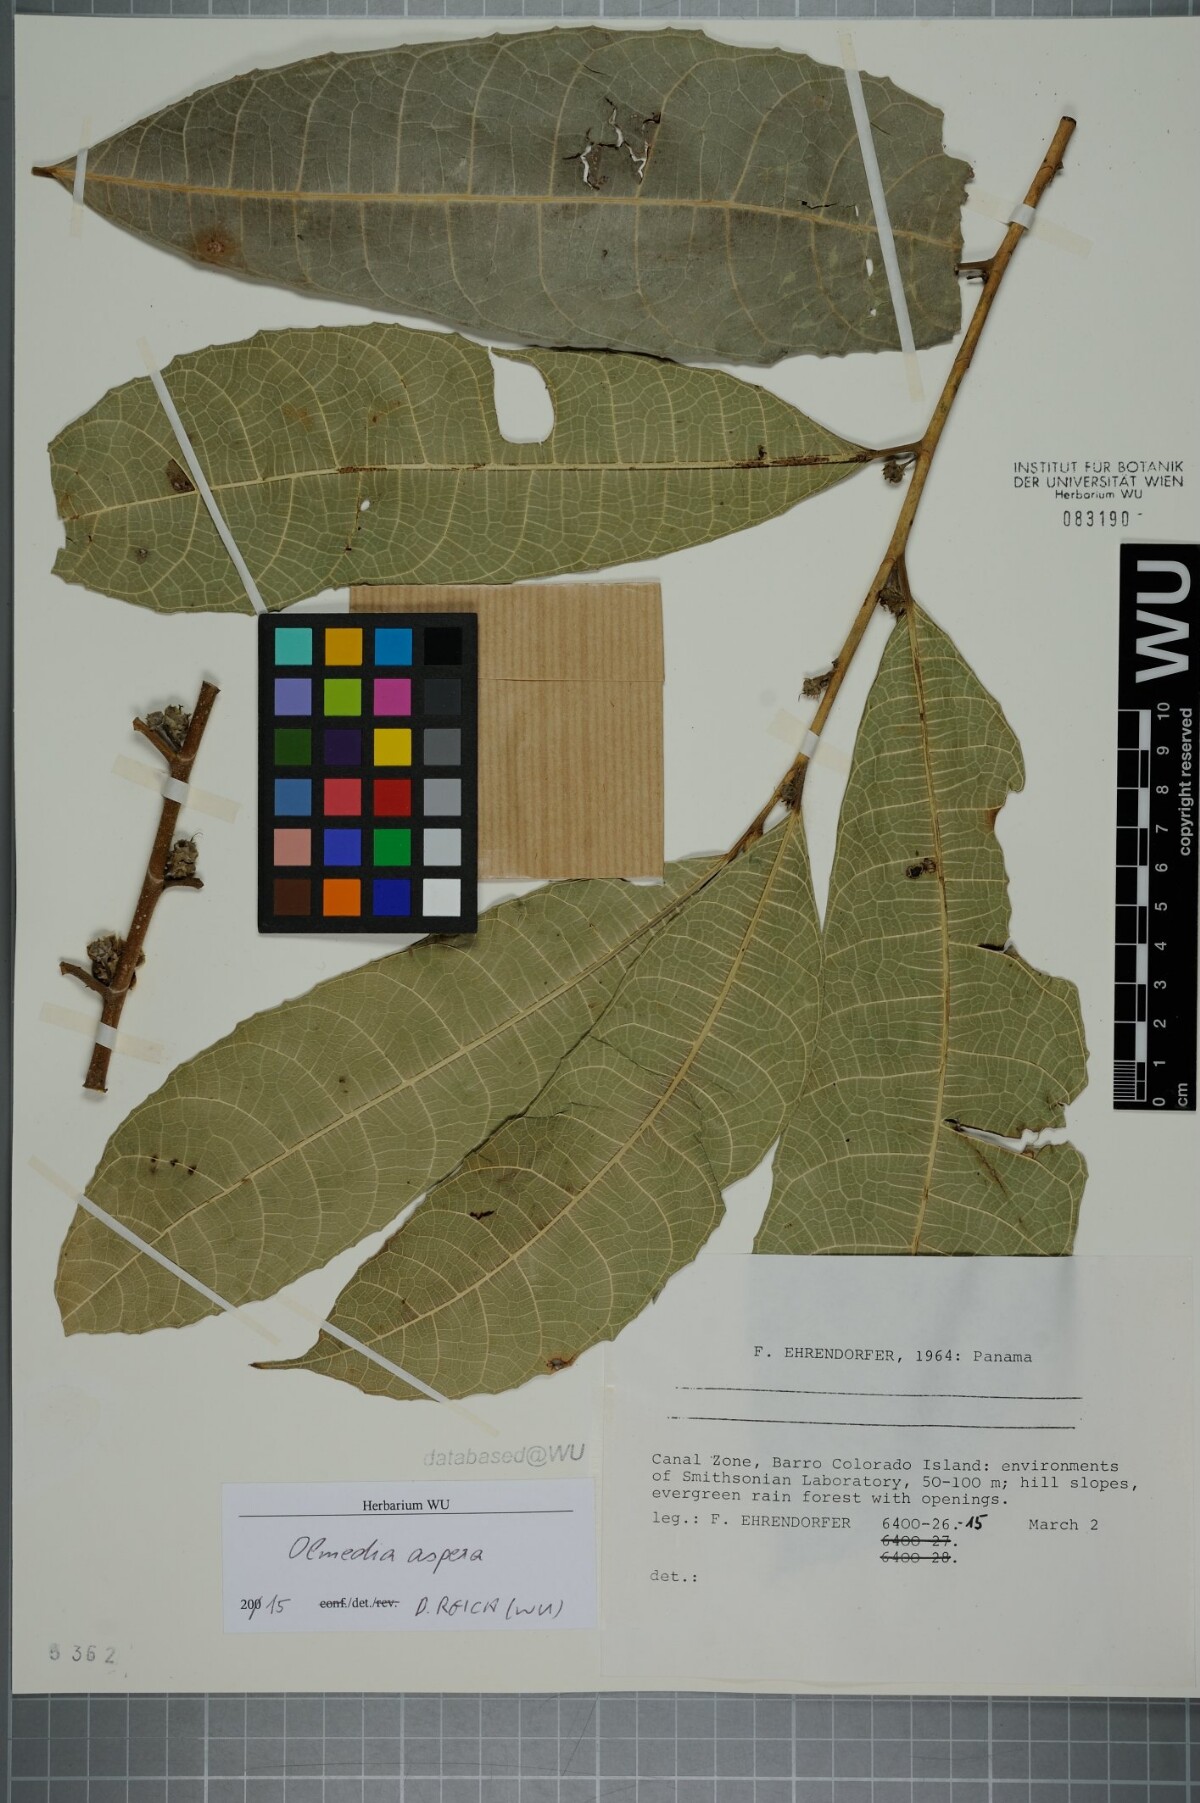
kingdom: Plantae
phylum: Tracheophyta
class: Magnoliopsida
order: Rosales
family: Moraceae
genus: Olmedia
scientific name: Olmedia aspera
